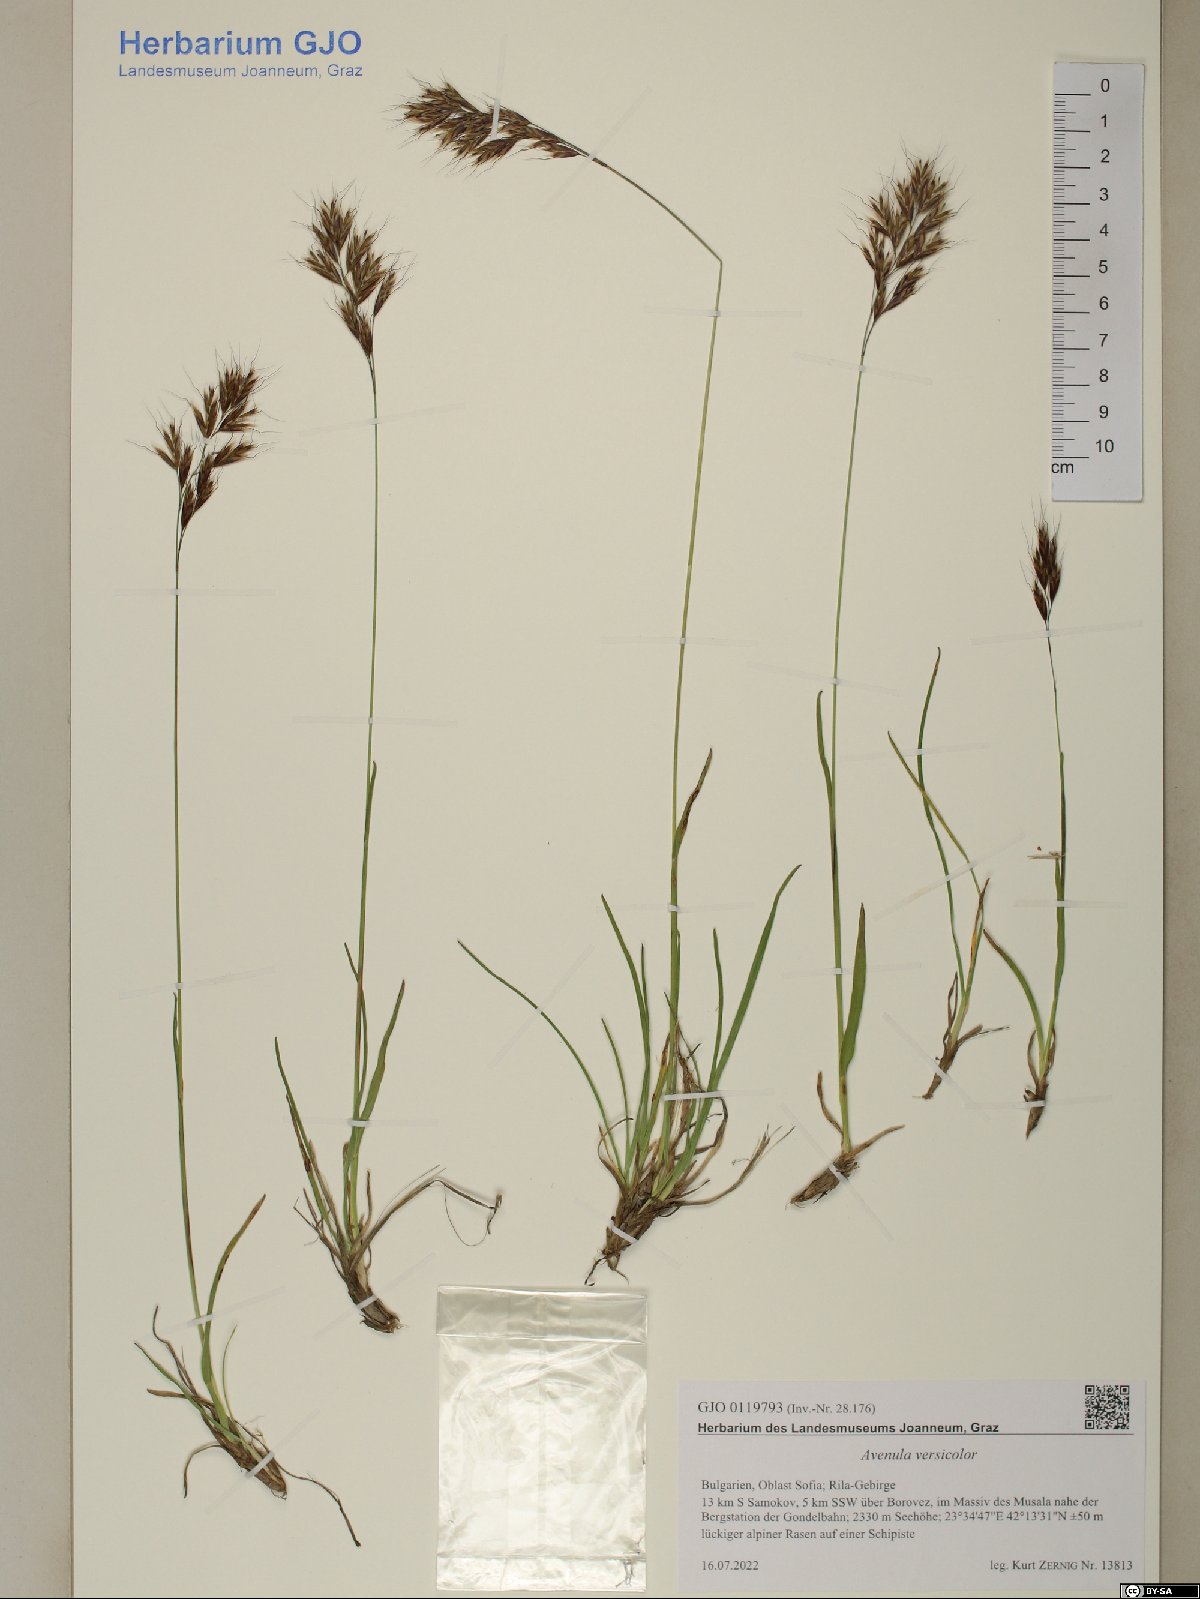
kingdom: Plantae
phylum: Tracheophyta
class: Liliopsida
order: Poales
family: Poaceae
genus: Helictochloa
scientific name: Helictochloa versicolor
